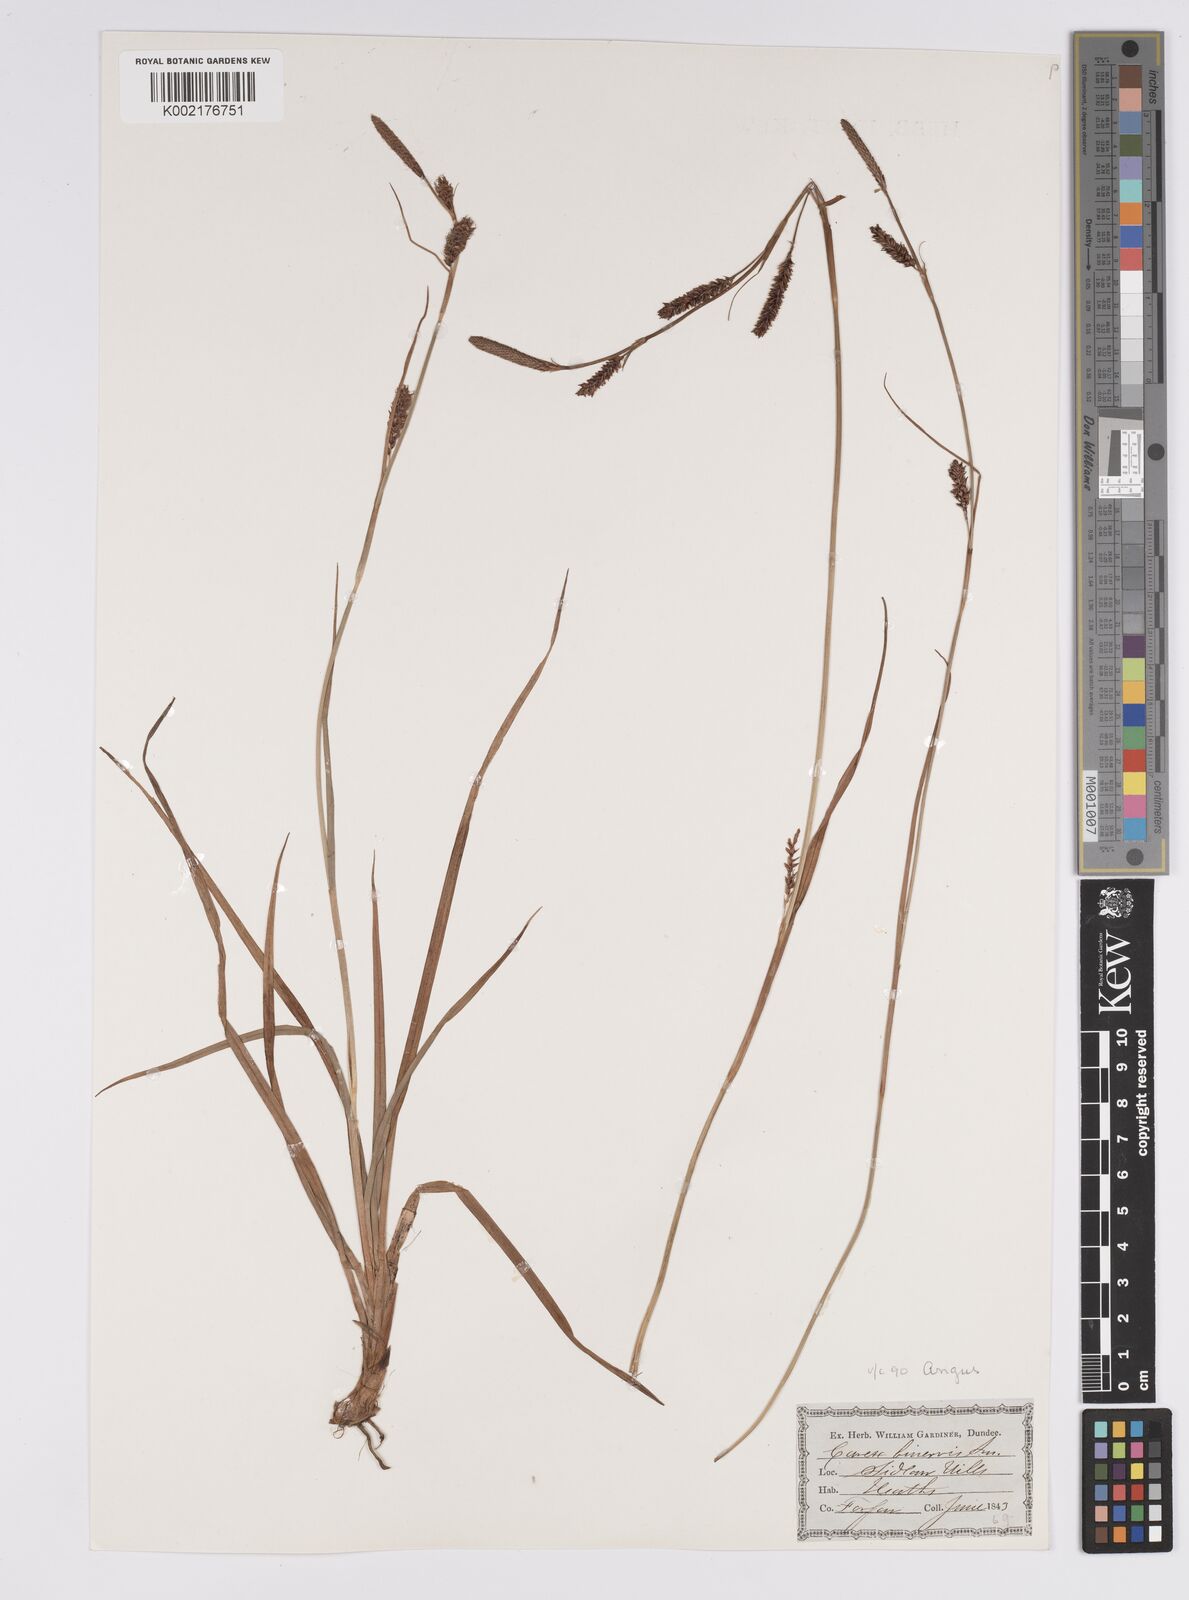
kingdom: Plantae
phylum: Tracheophyta
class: Liliopsida
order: Poales
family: Cyperaceae
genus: Carex
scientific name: Carex binervis
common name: Green-ribbed sedge
